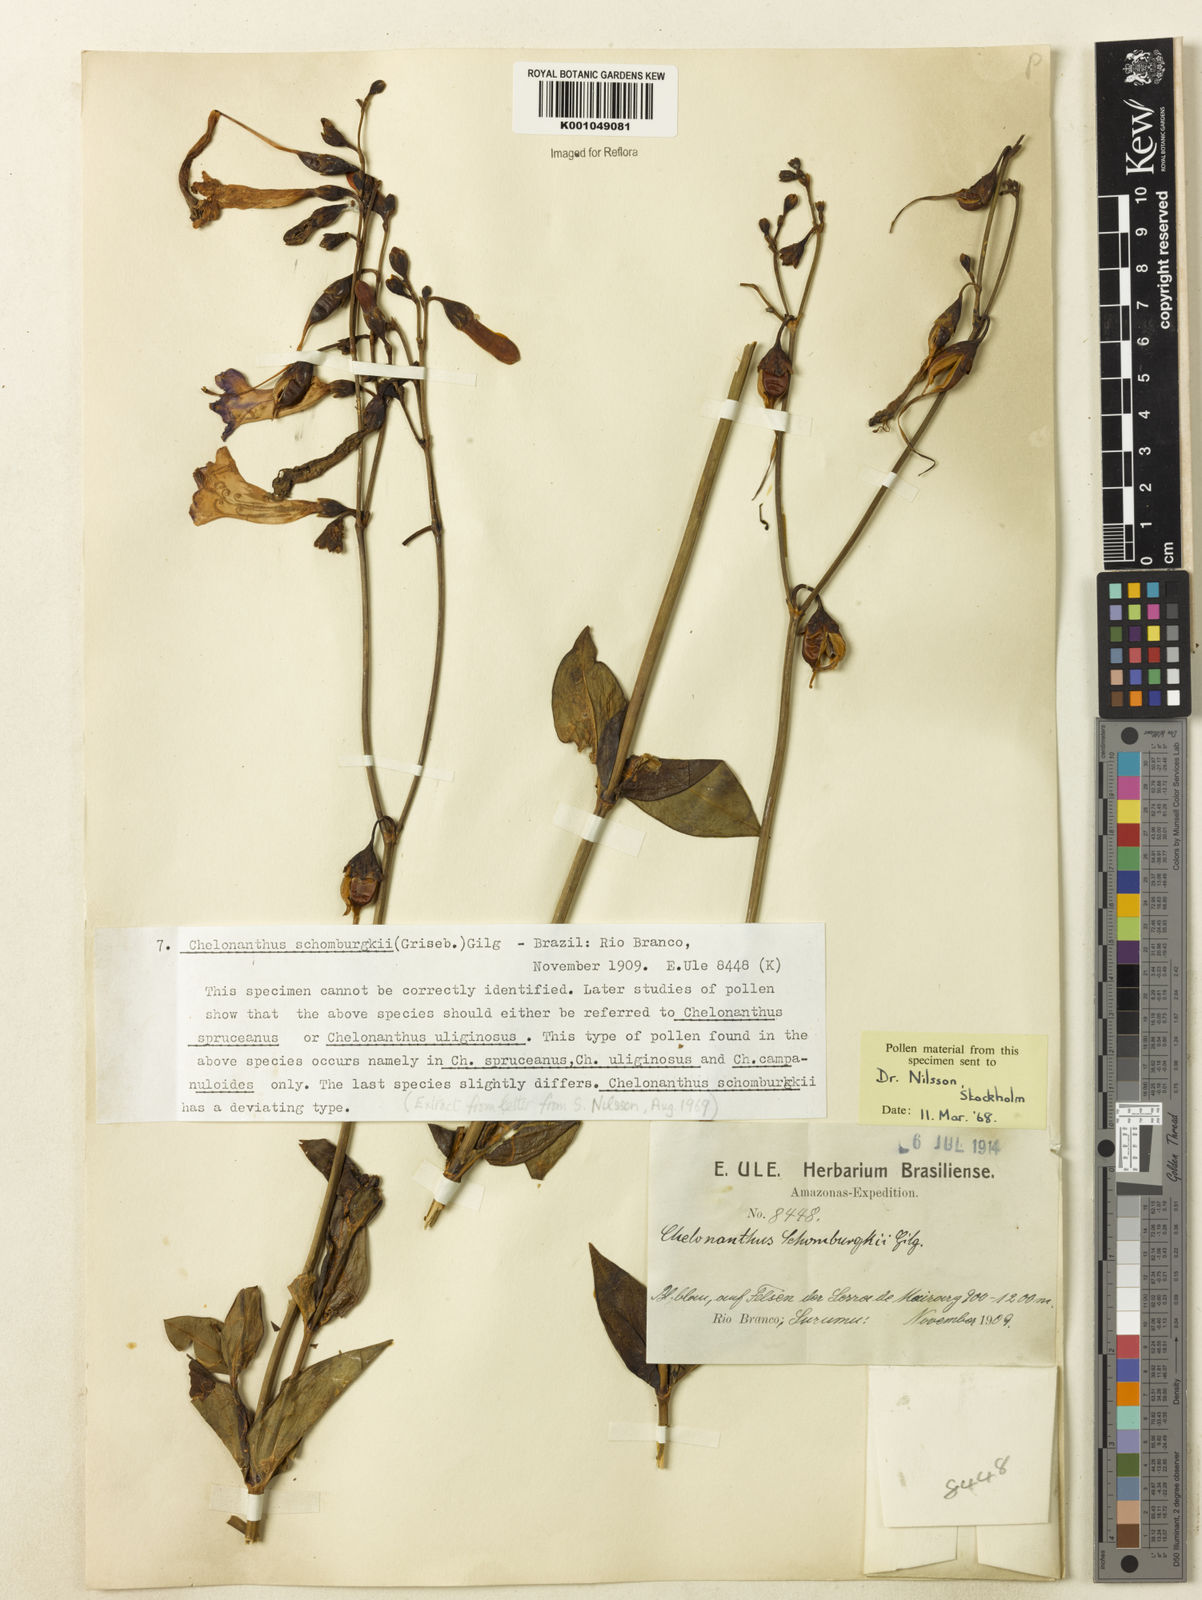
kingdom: Plantae
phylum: Tracheophyta
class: Magnoliopsida
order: Gentianales
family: Gentianaceae
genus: Chelonanthus
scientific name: Chelonanthus grandiflorus
